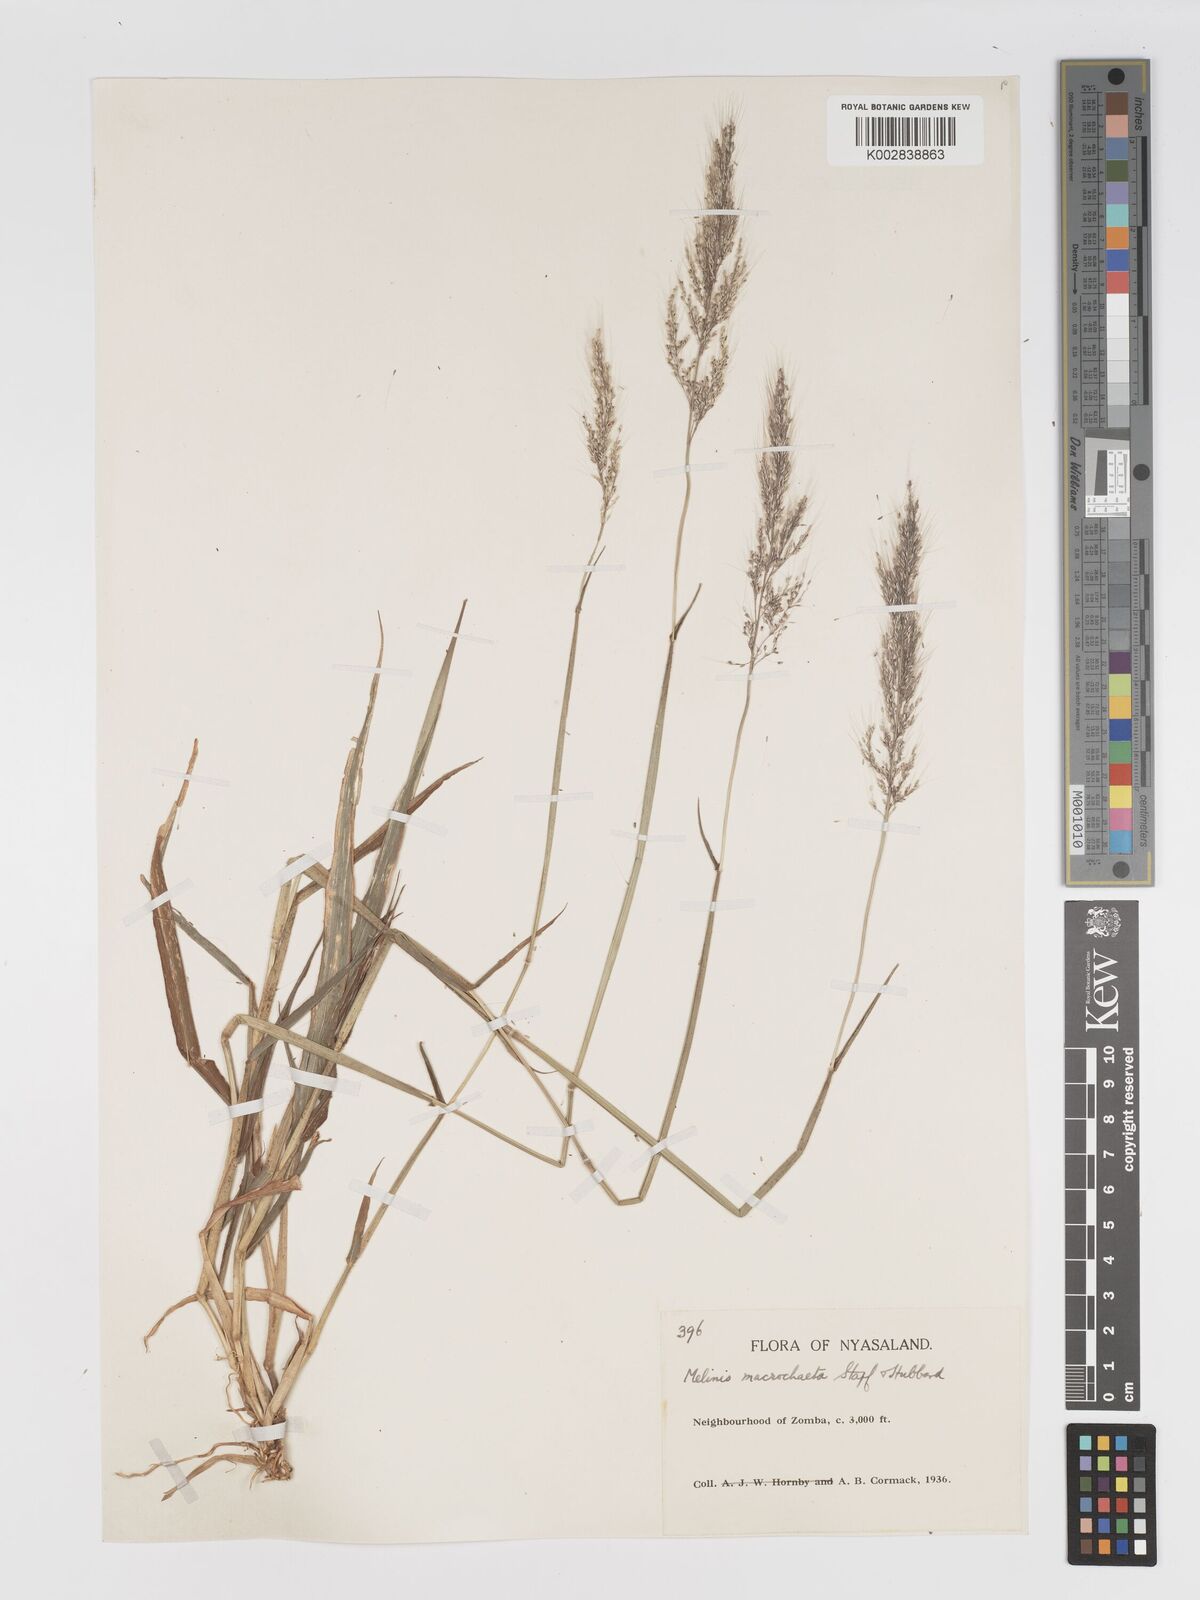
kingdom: Plantae
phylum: Tracheophyta
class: Liliopsida
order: Poales
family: Poaceae
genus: Melinis
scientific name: Melinis macrochaeta
